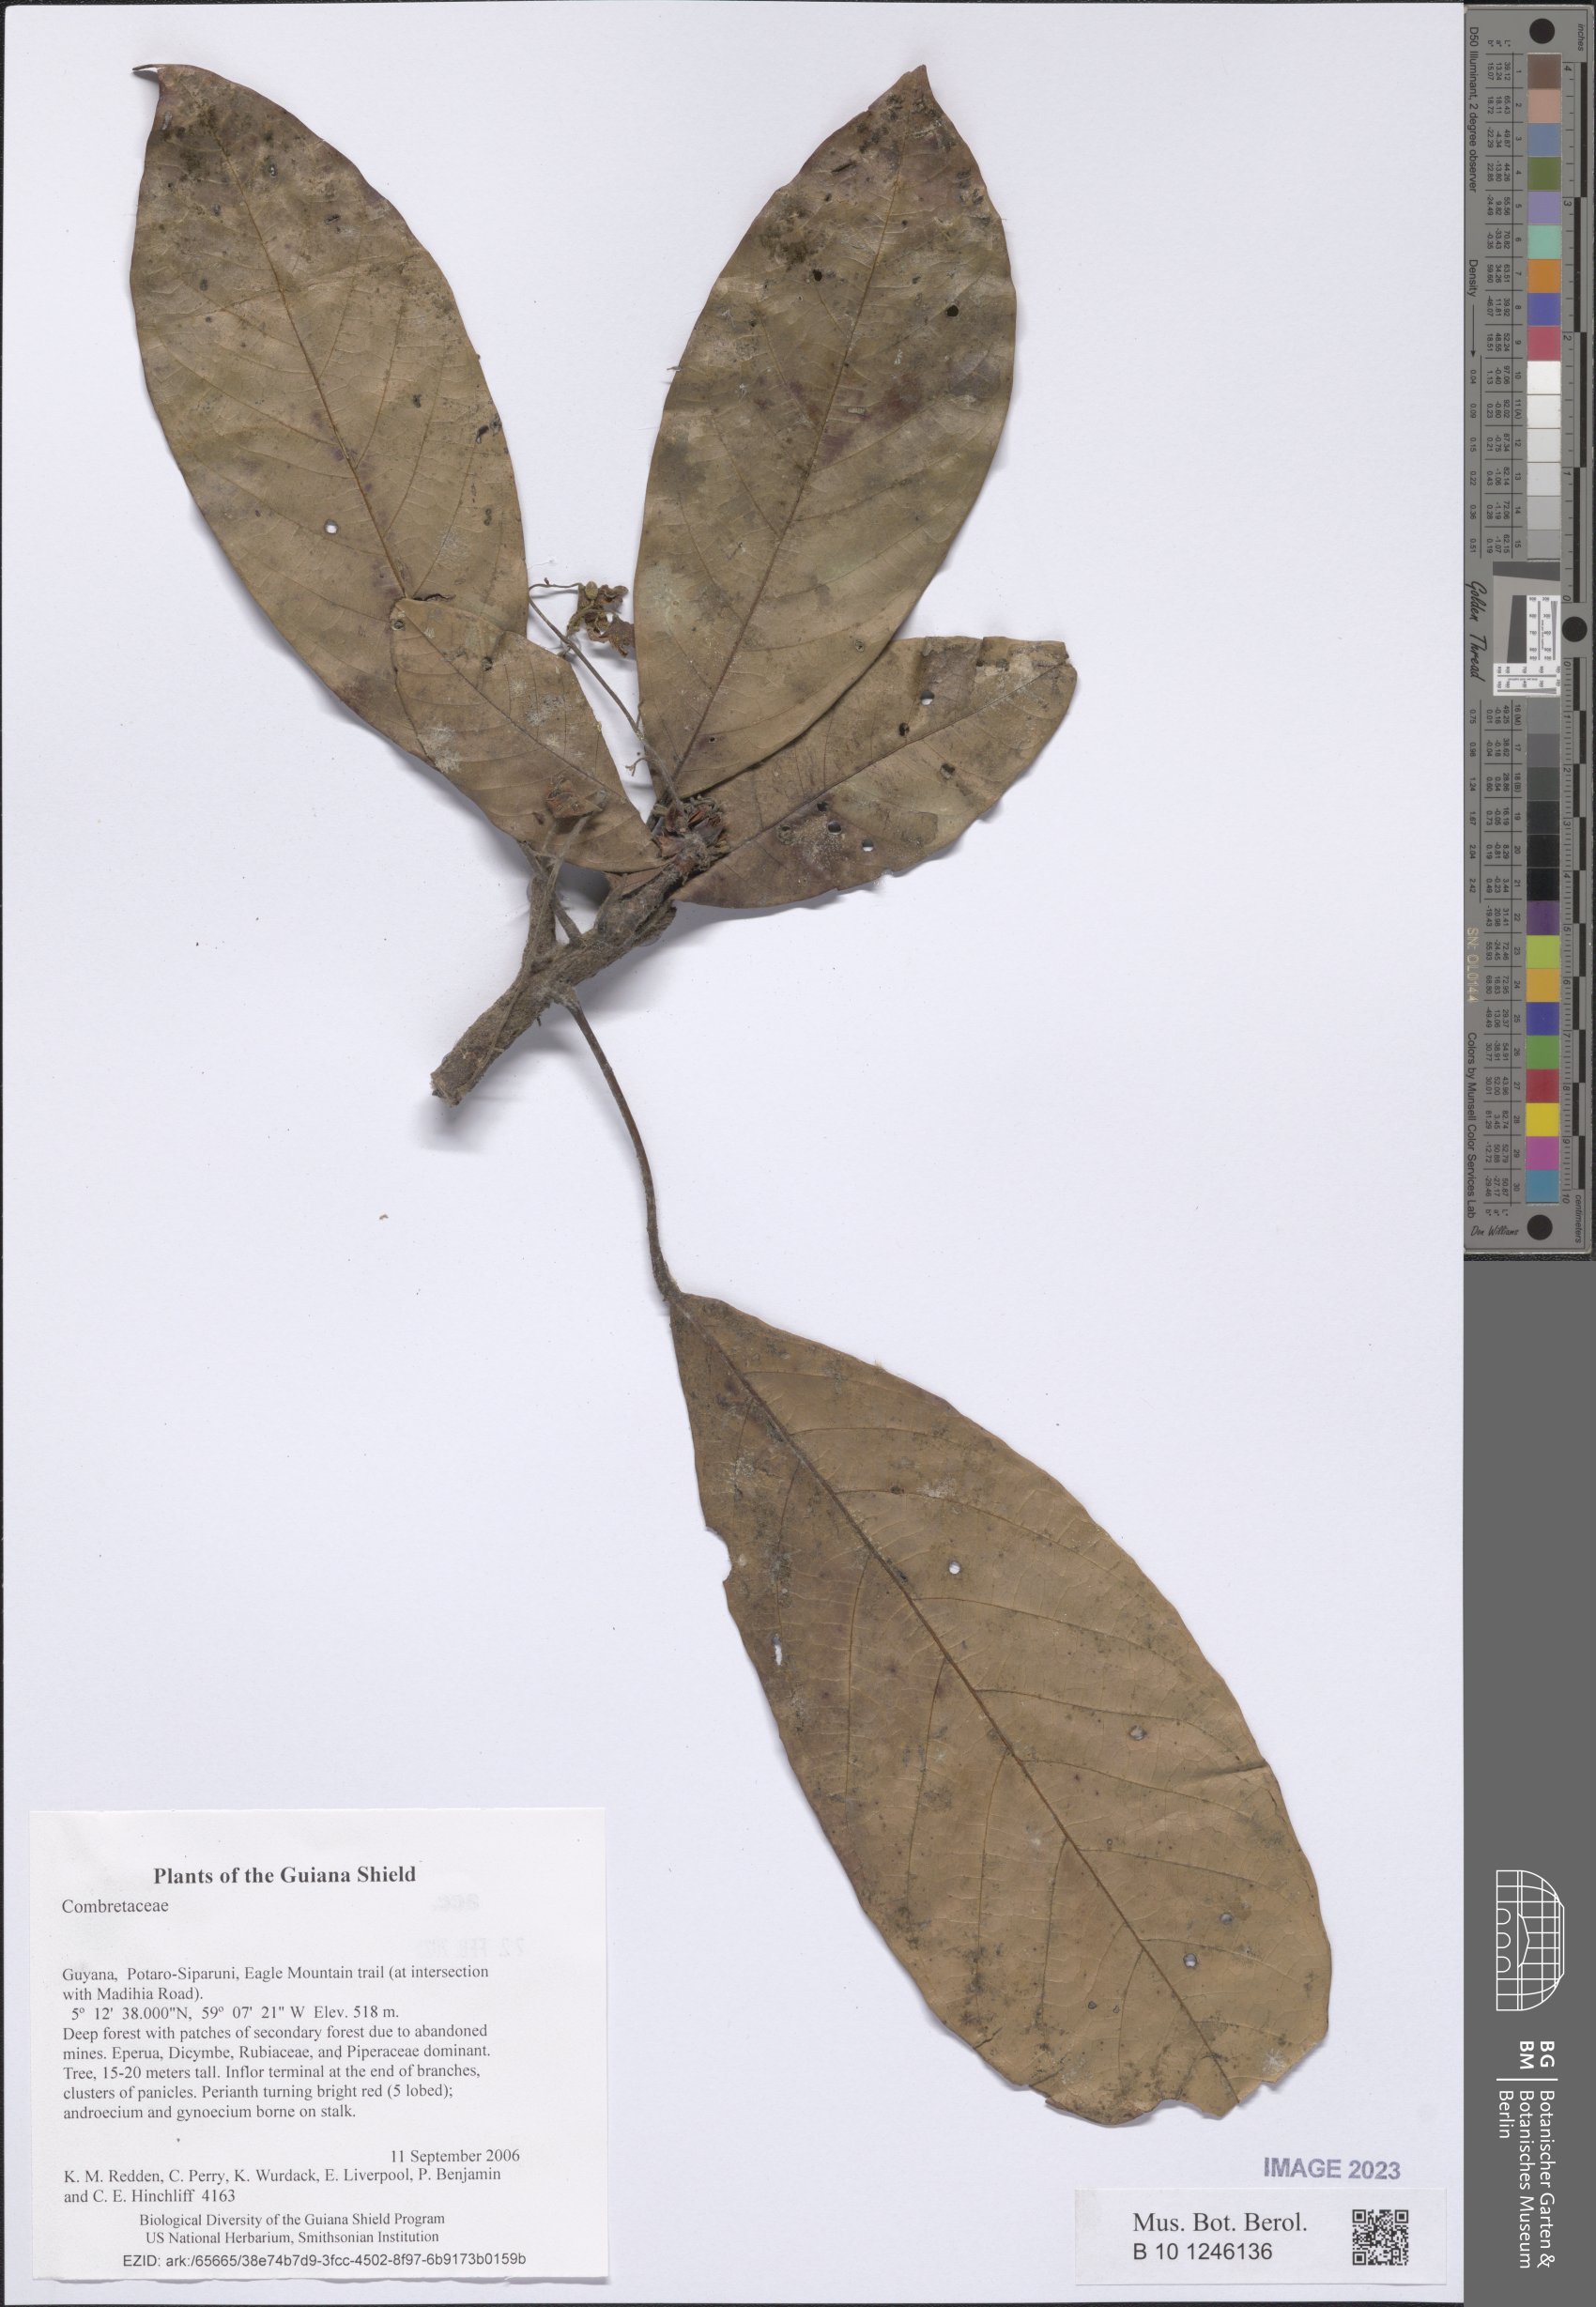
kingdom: Plantae
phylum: Tracheophyta
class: Magnoliopsida
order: Myrtales
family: Combretaceae
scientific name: Combretaceae
